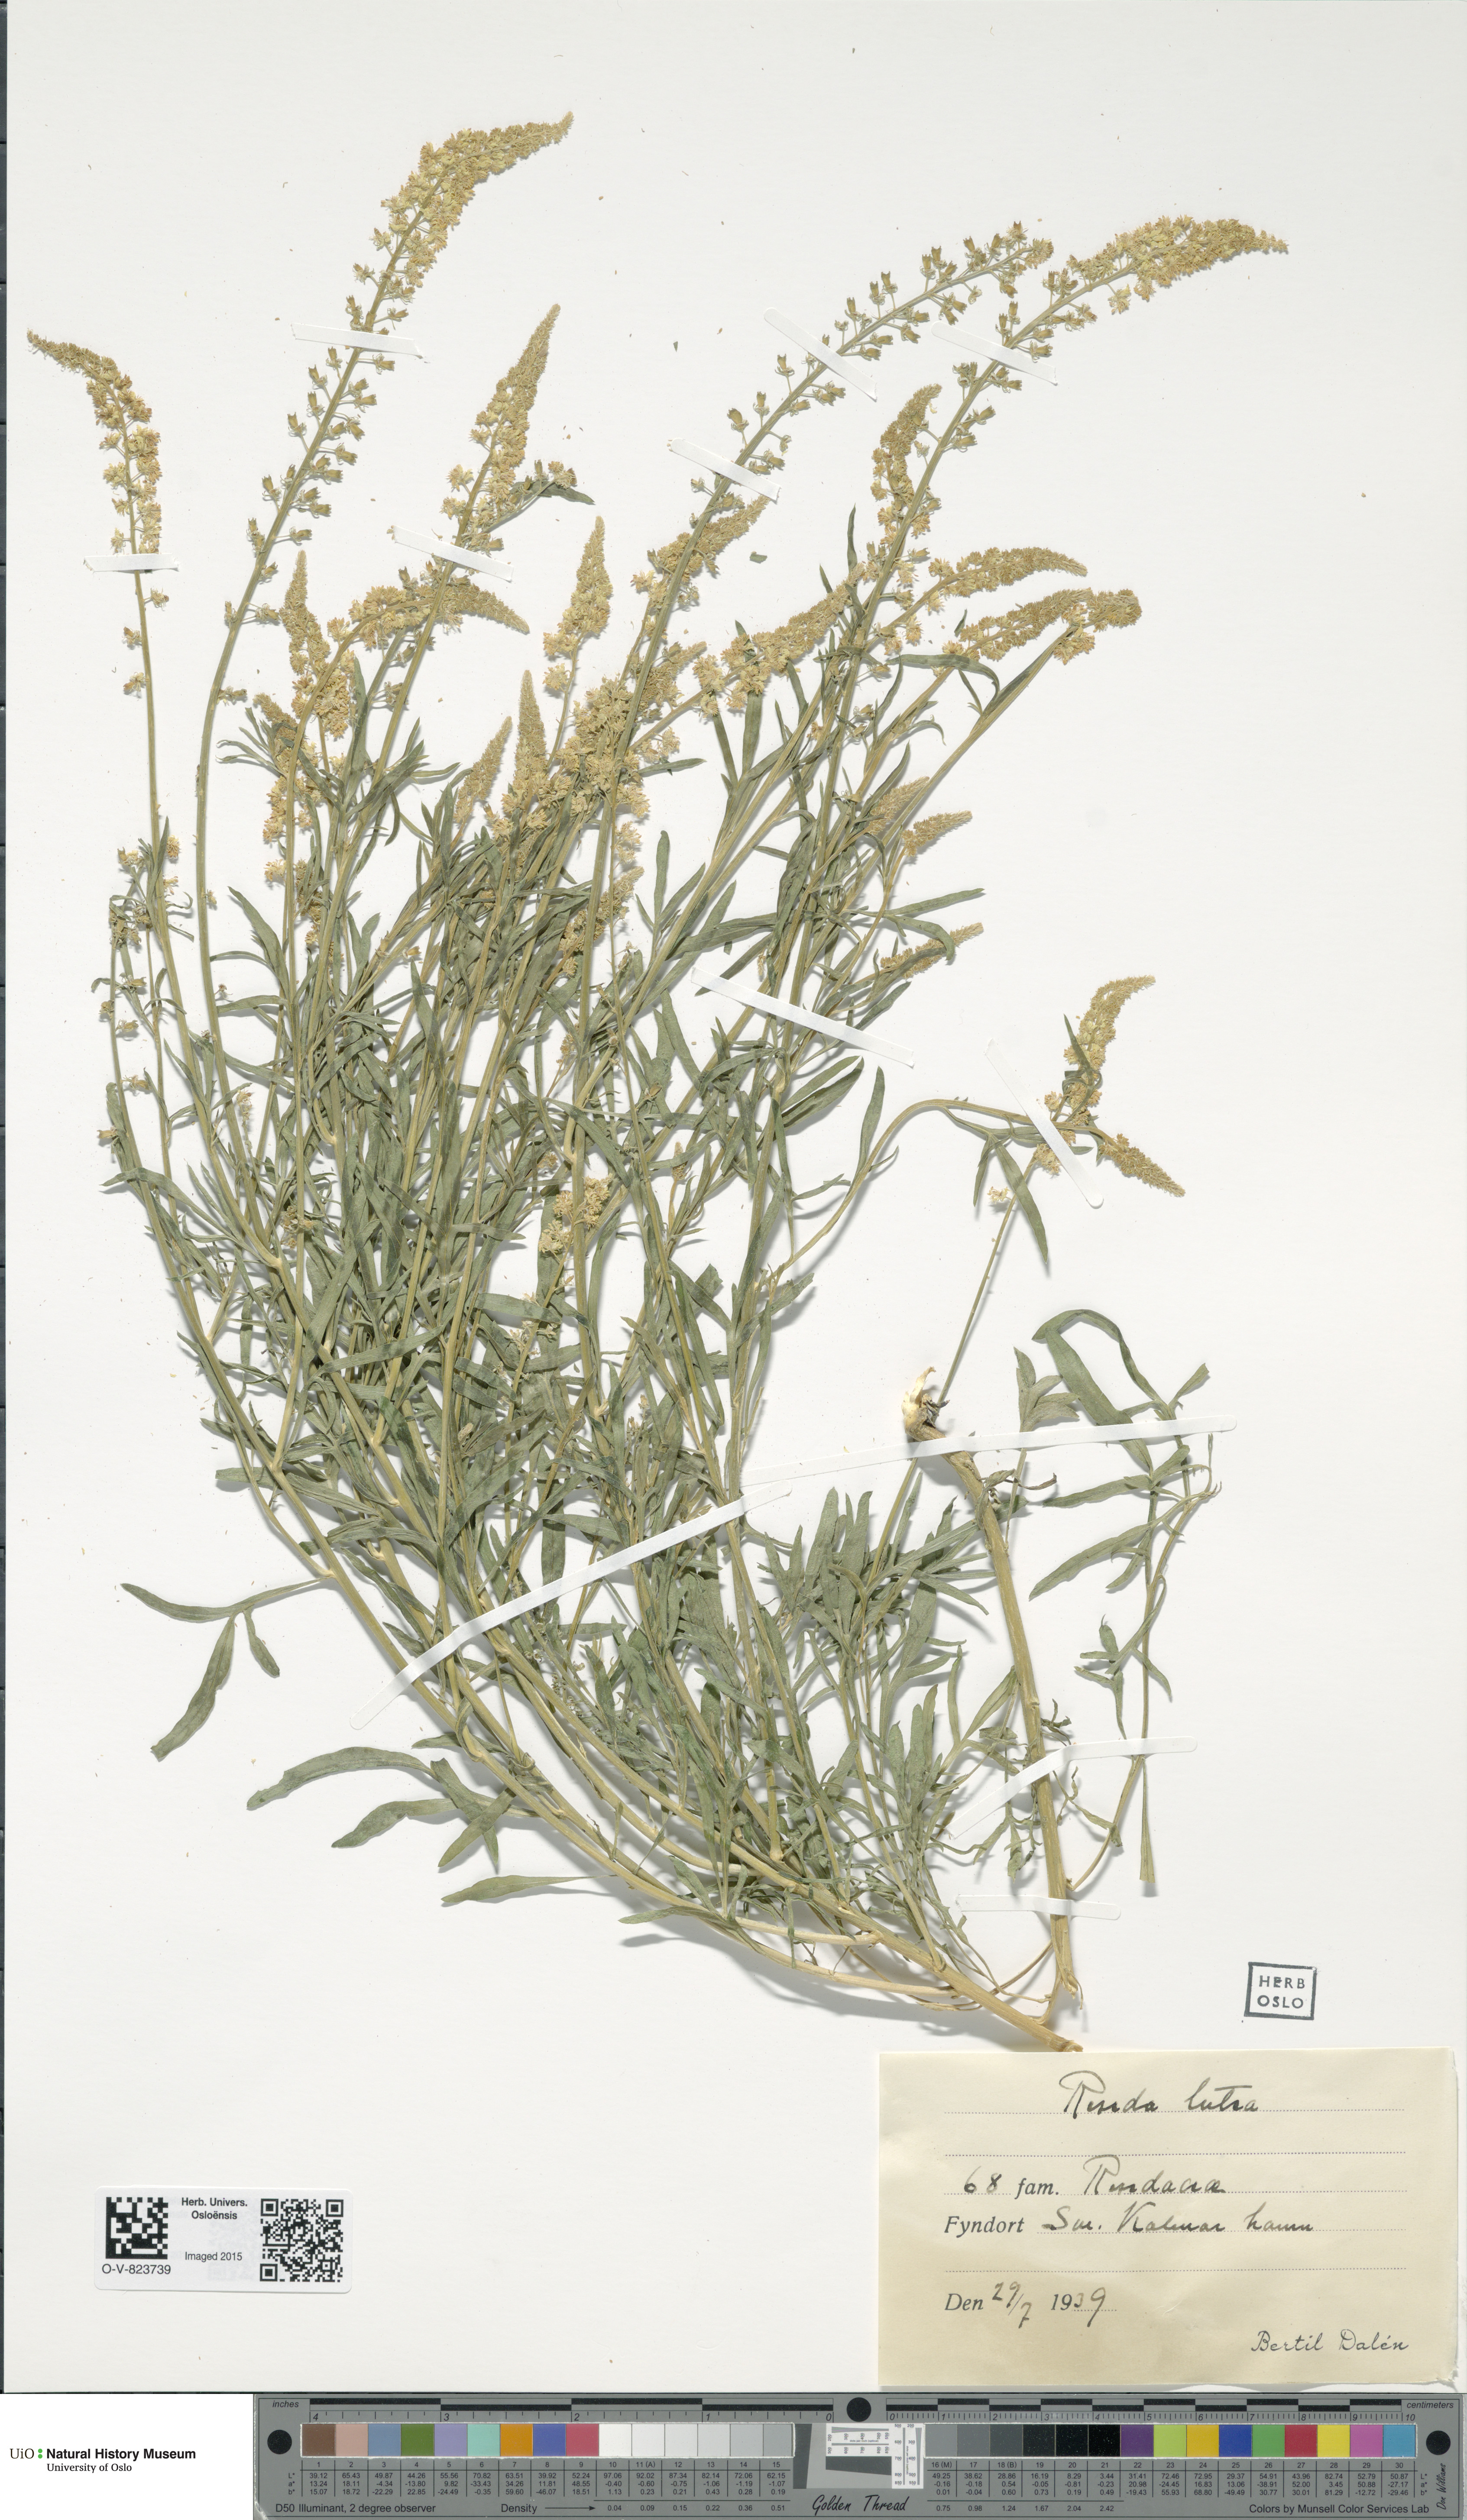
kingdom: Plantae
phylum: Tracheophyta
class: Magnoliopsida
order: Brassicales
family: Resedaceae
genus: Reseda
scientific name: Reseda lutea
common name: Wild mignonette
